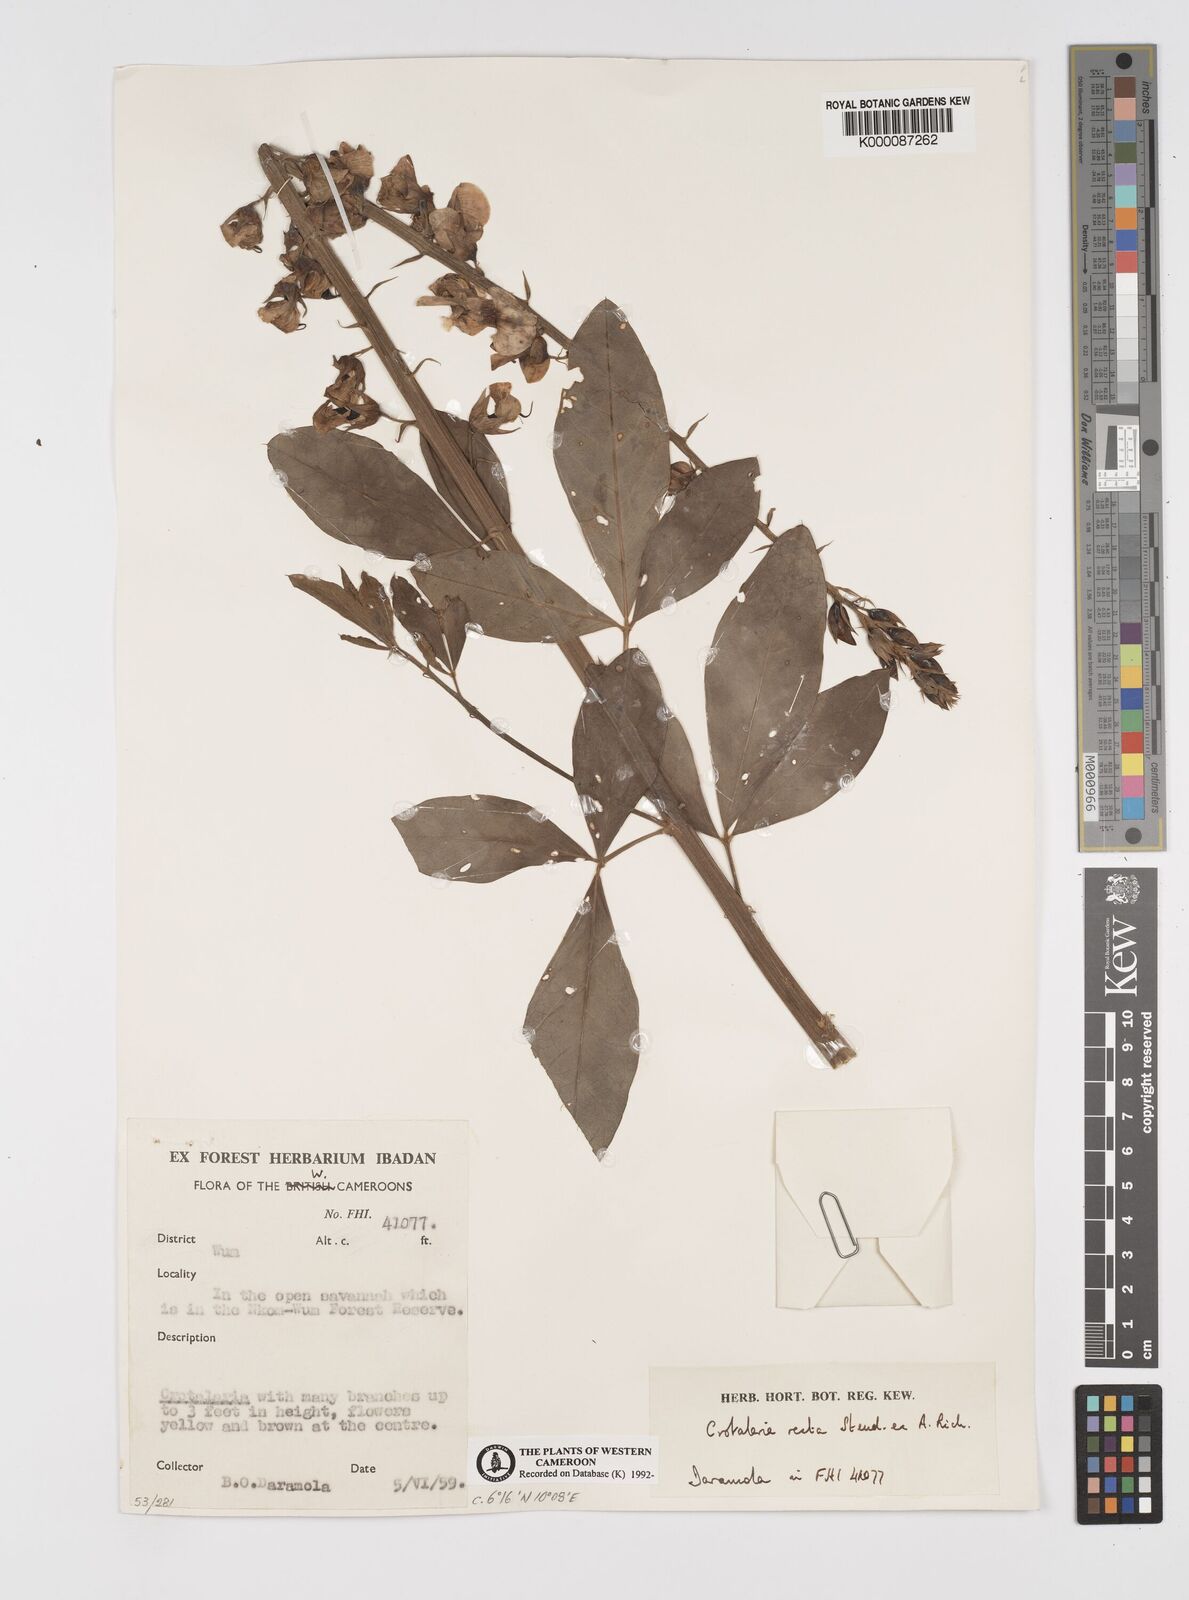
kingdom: Plantae
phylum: Tracheophyta
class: Magnoliopsida
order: Fabales
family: Fabaceae
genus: Crotalaria
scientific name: Crotalaria recta
